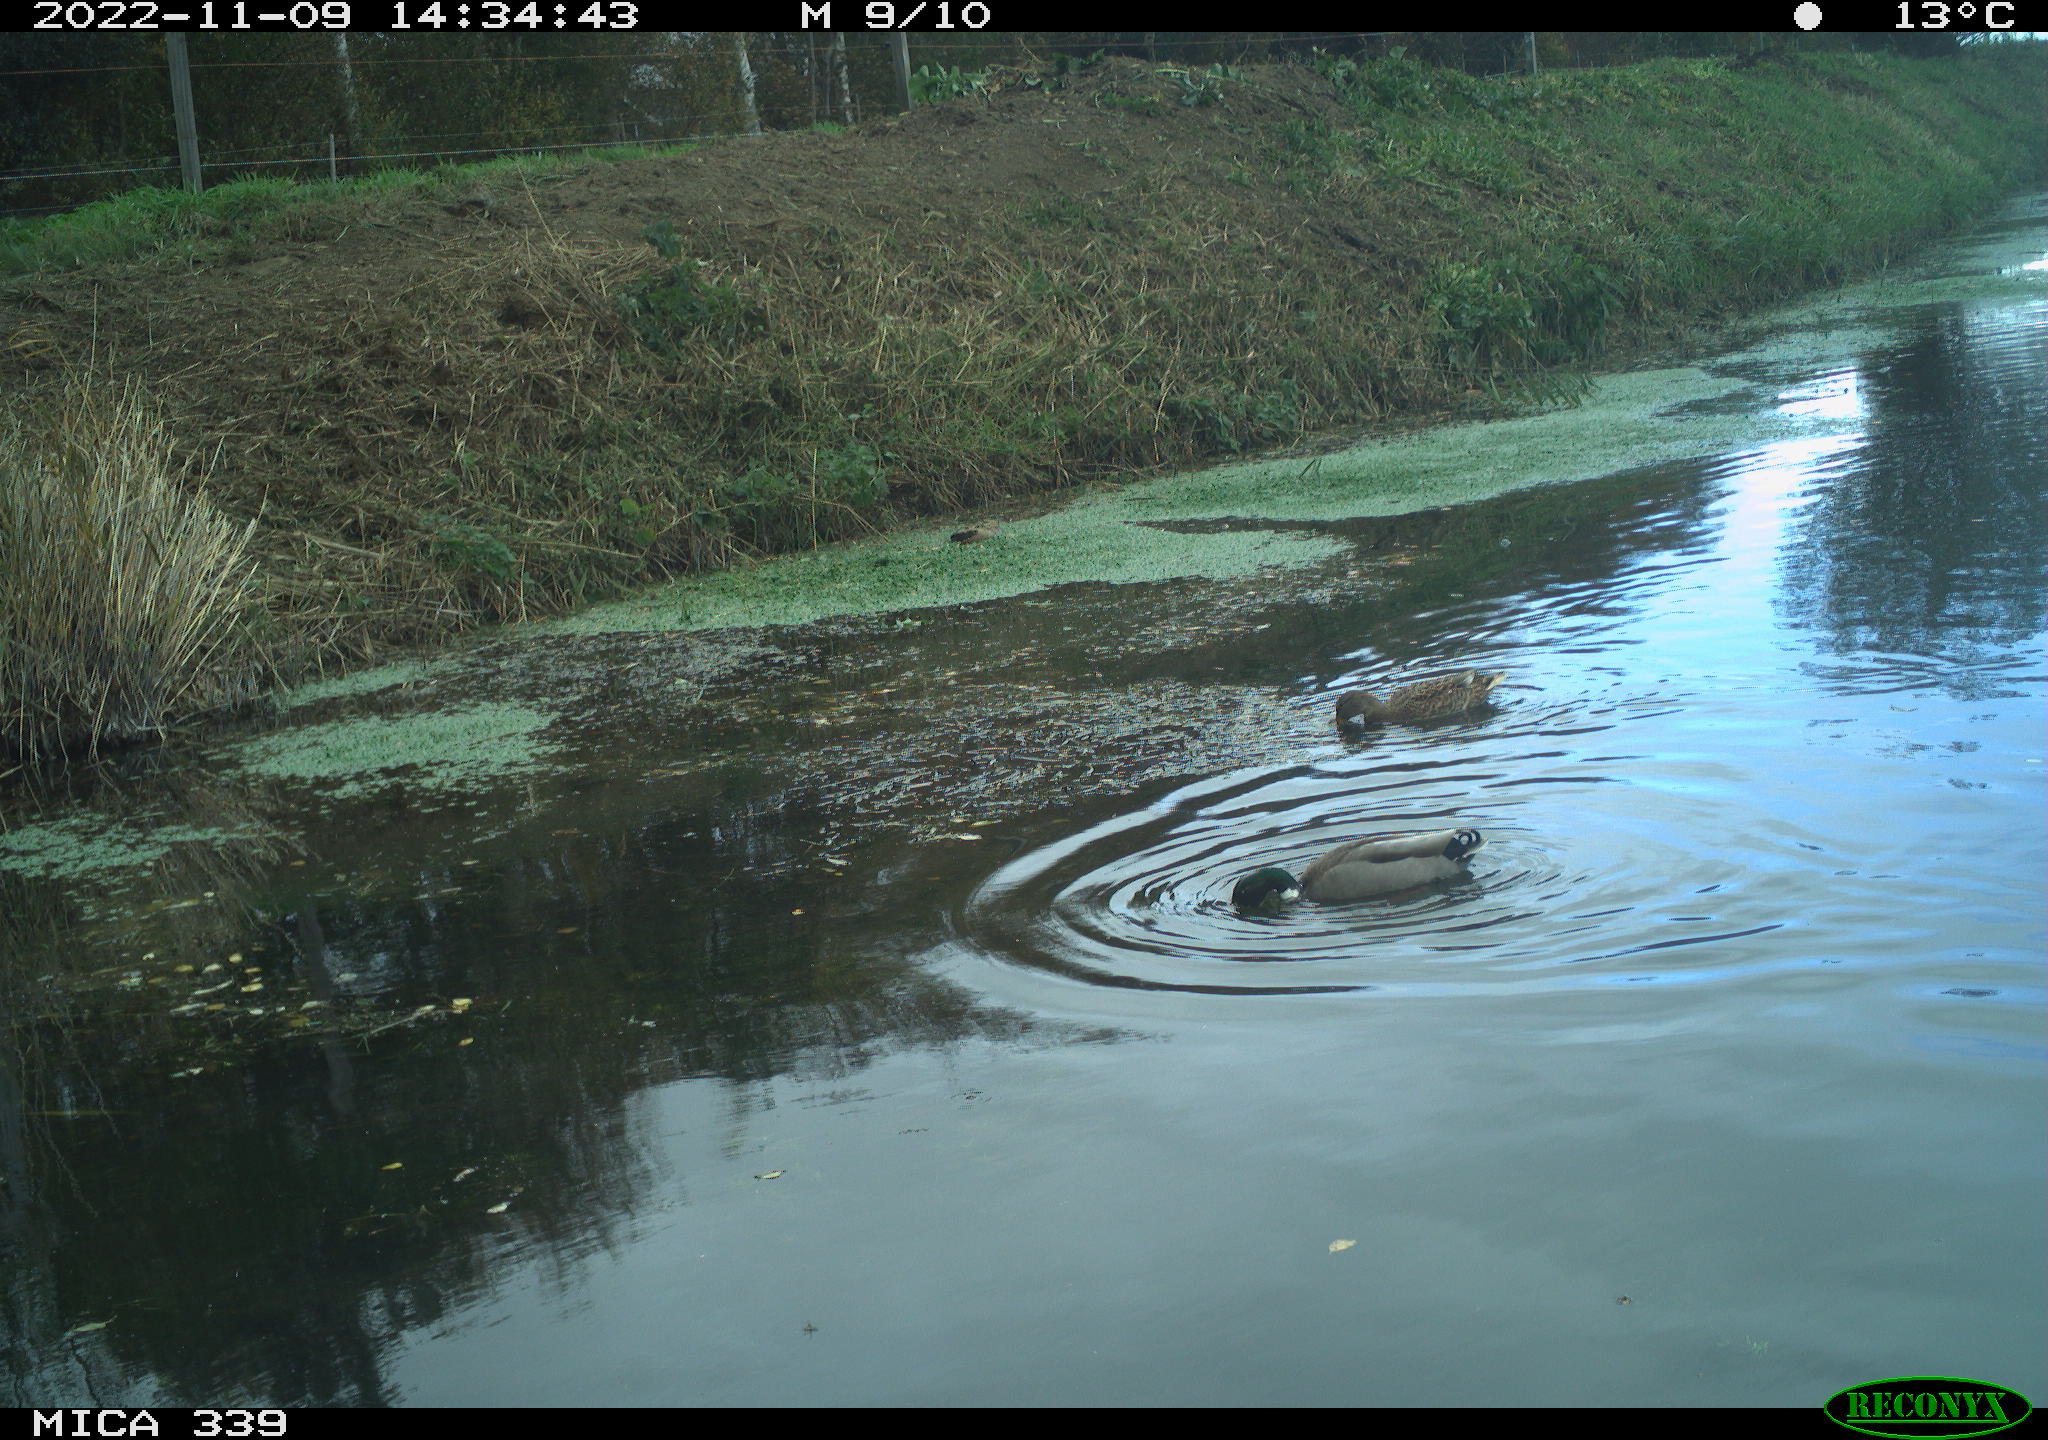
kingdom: Animalia
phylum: Chordata
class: Aves
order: Anseriformes
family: Anatidae
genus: Anas
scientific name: Anas platyrhynchos
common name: Mallard
